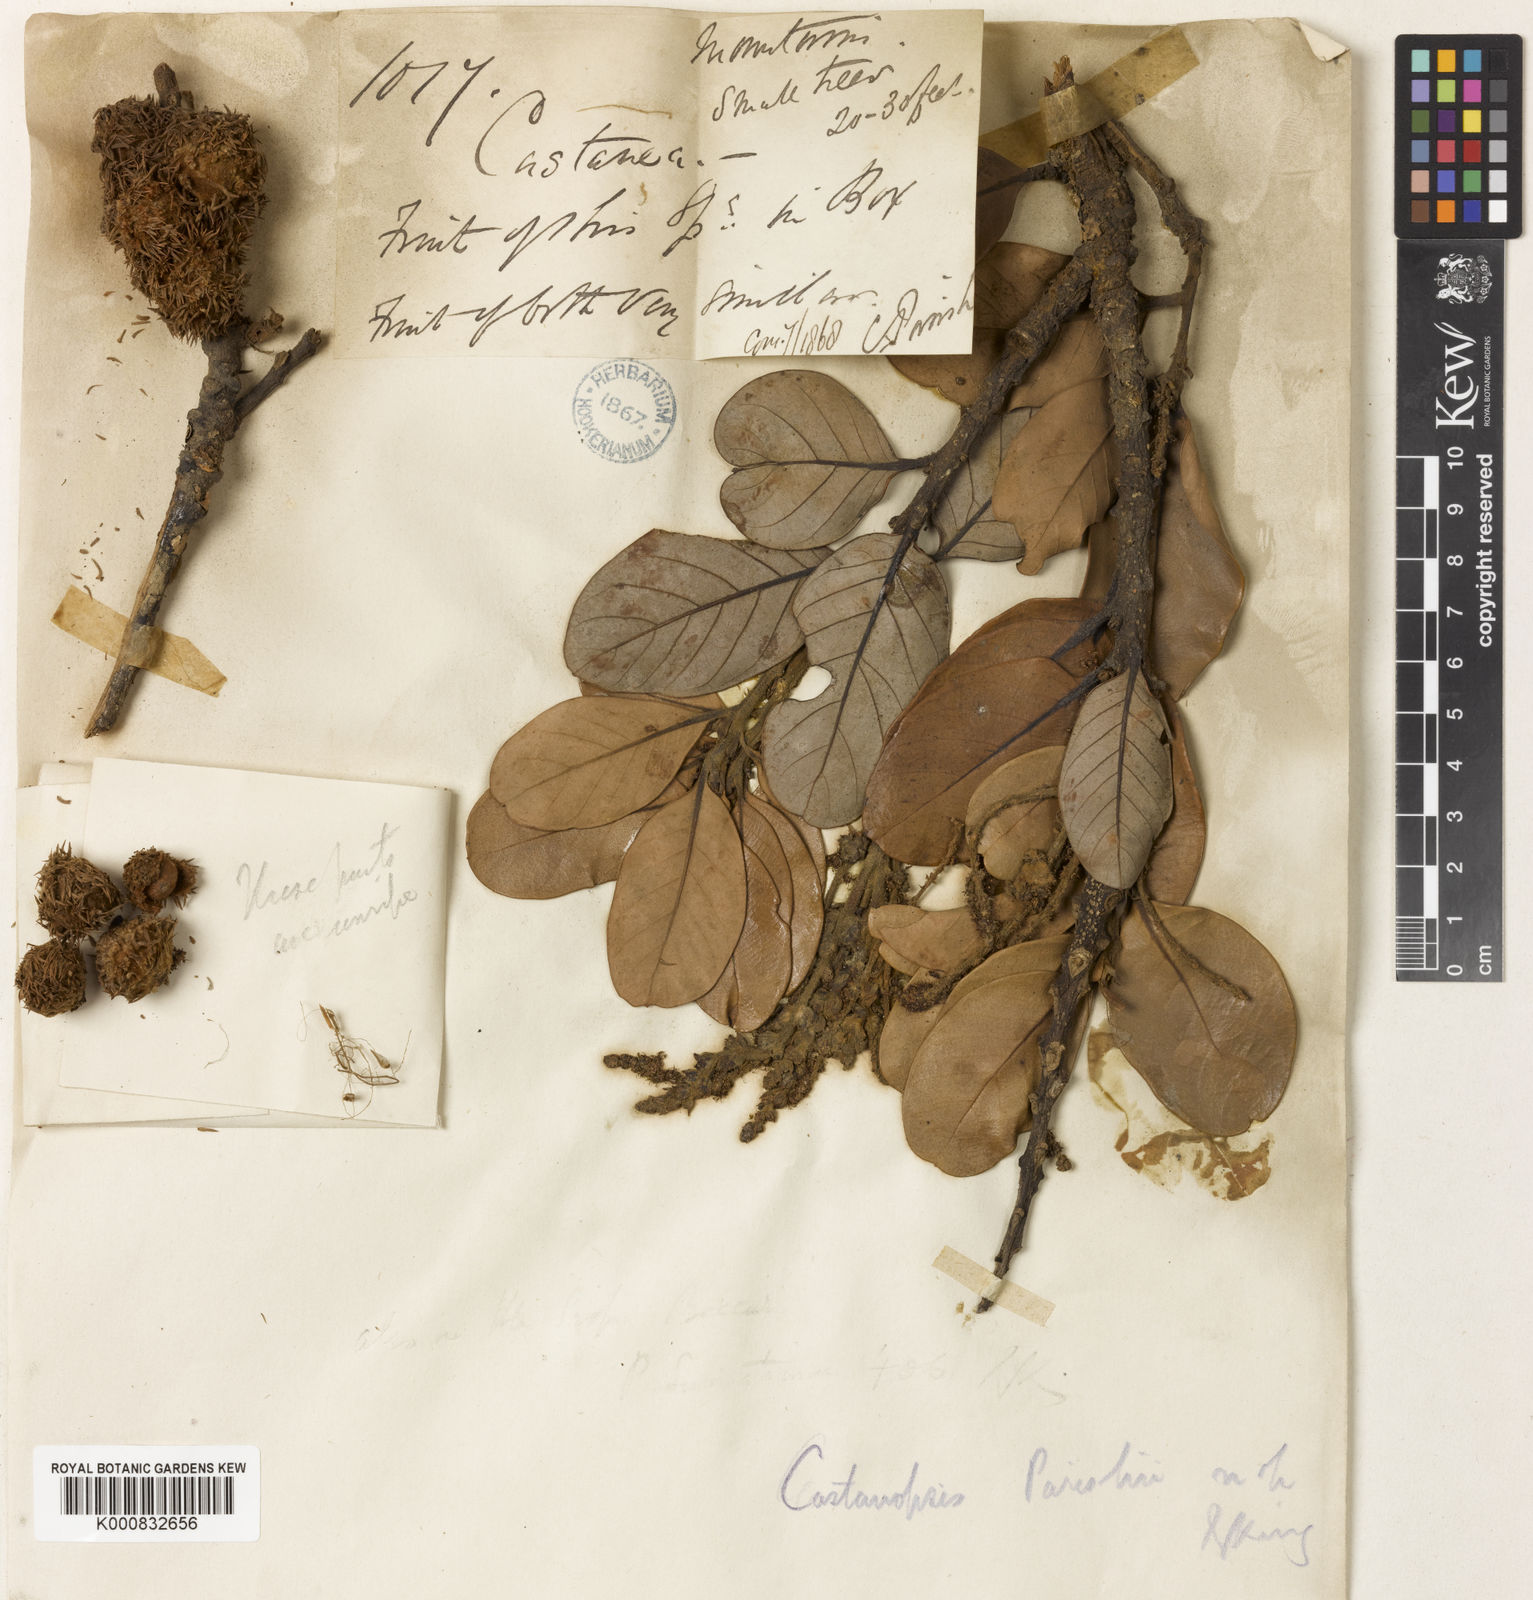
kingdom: Plantae
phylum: Tracheophyta
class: Magnoliopsida
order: Fagales
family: Fagaceae
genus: Castanopsis
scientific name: Castanopsis
